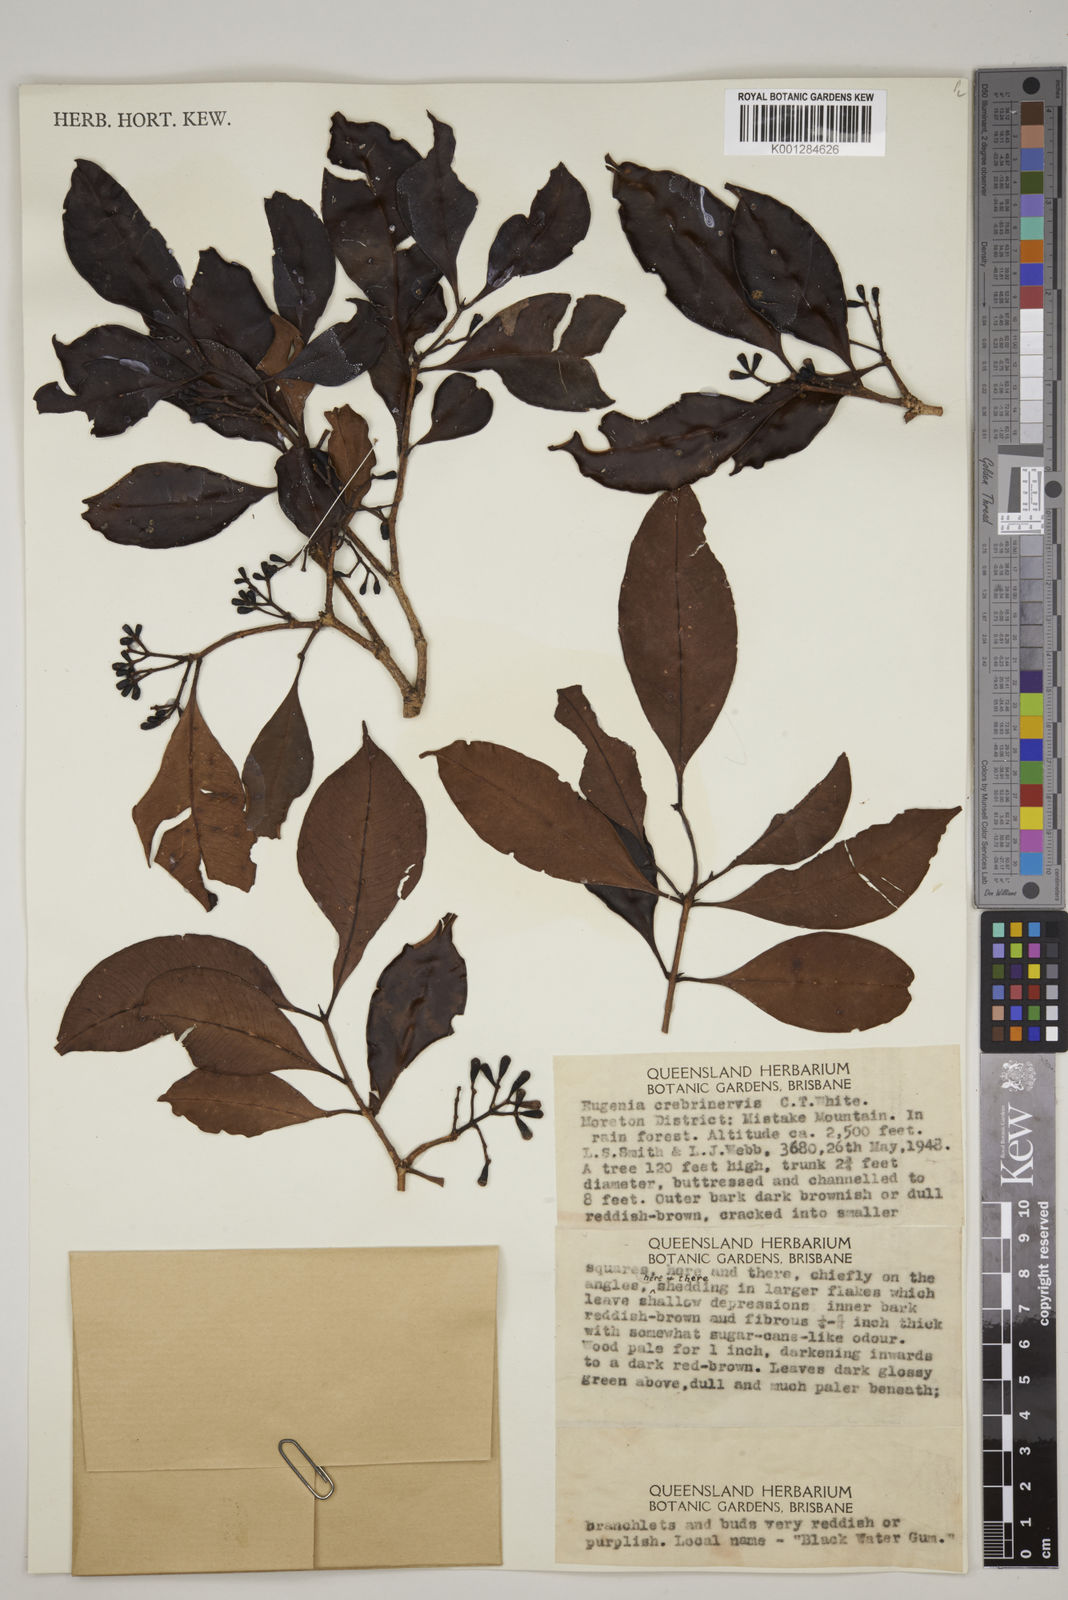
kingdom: Plantae
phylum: Tracheophyta
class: Magnoliopsida
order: Myrtales
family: Myrtaceae
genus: Syzygium
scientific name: Syzygium crebrinerve
